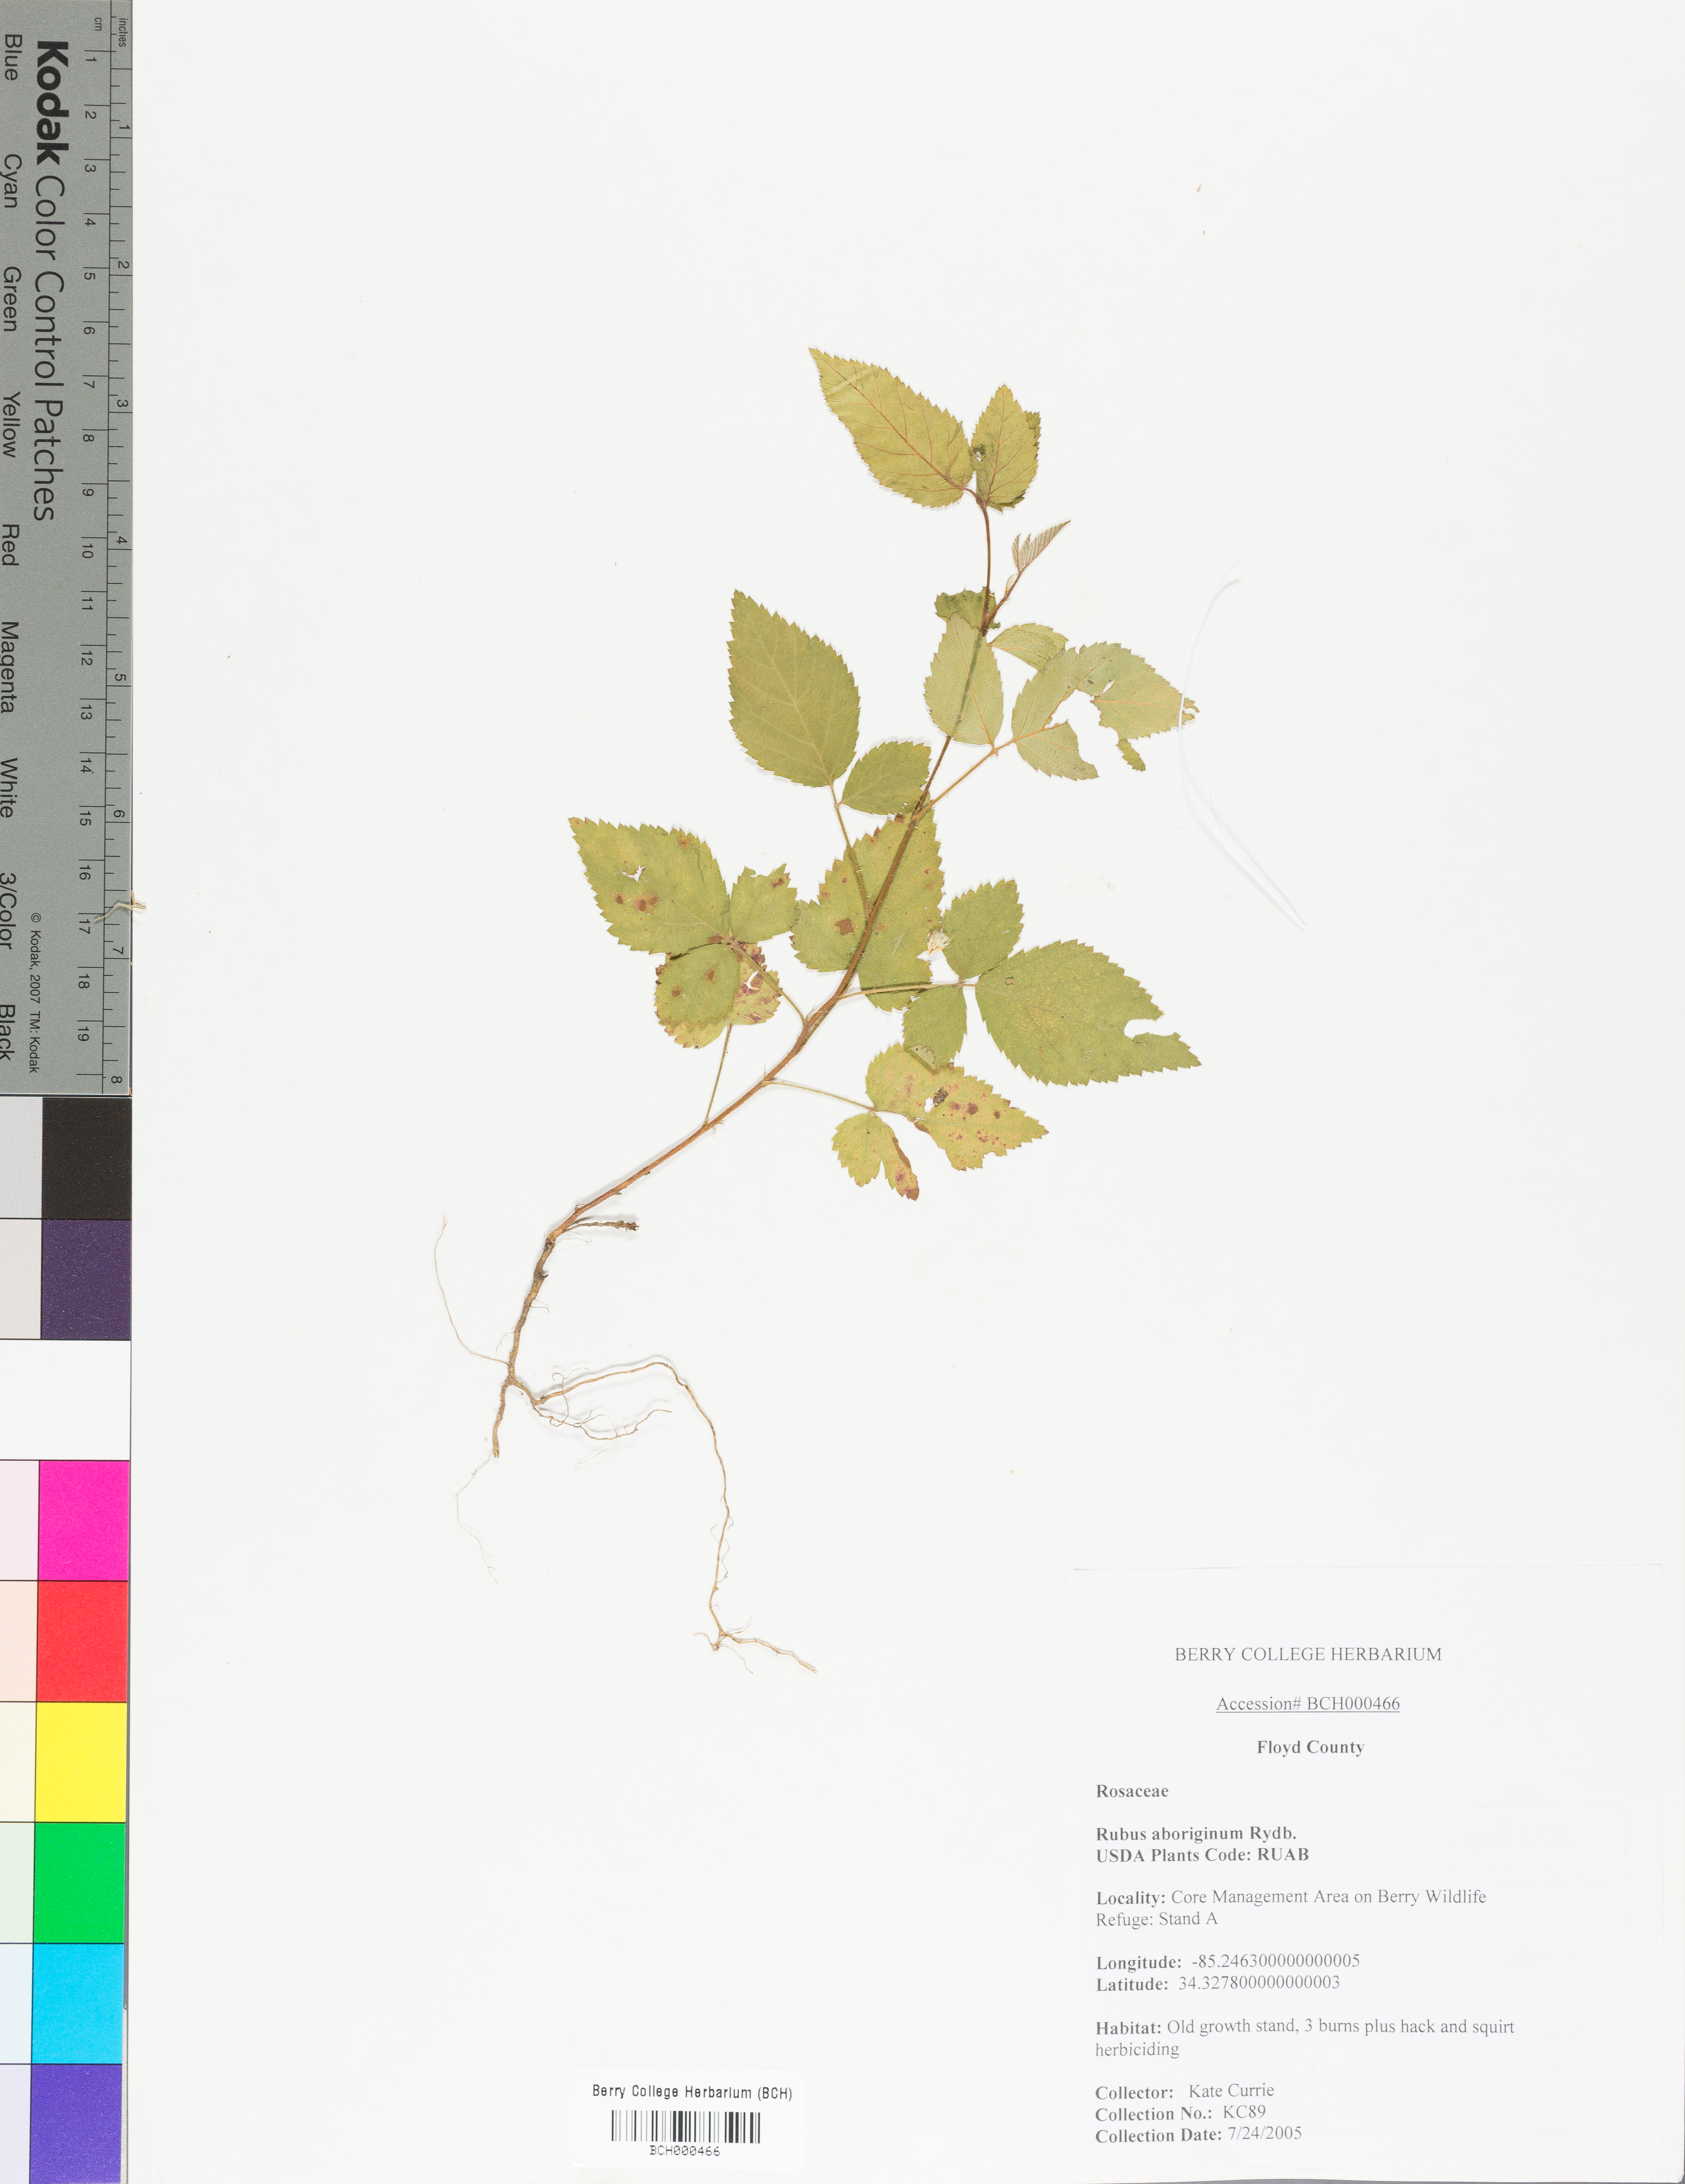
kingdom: Plantae
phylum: Tracheophyta
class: Magnoliopsida
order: Rosales
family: Rosaceae
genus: Rubus
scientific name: Rubus aboriginum
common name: Mayes dewberry
